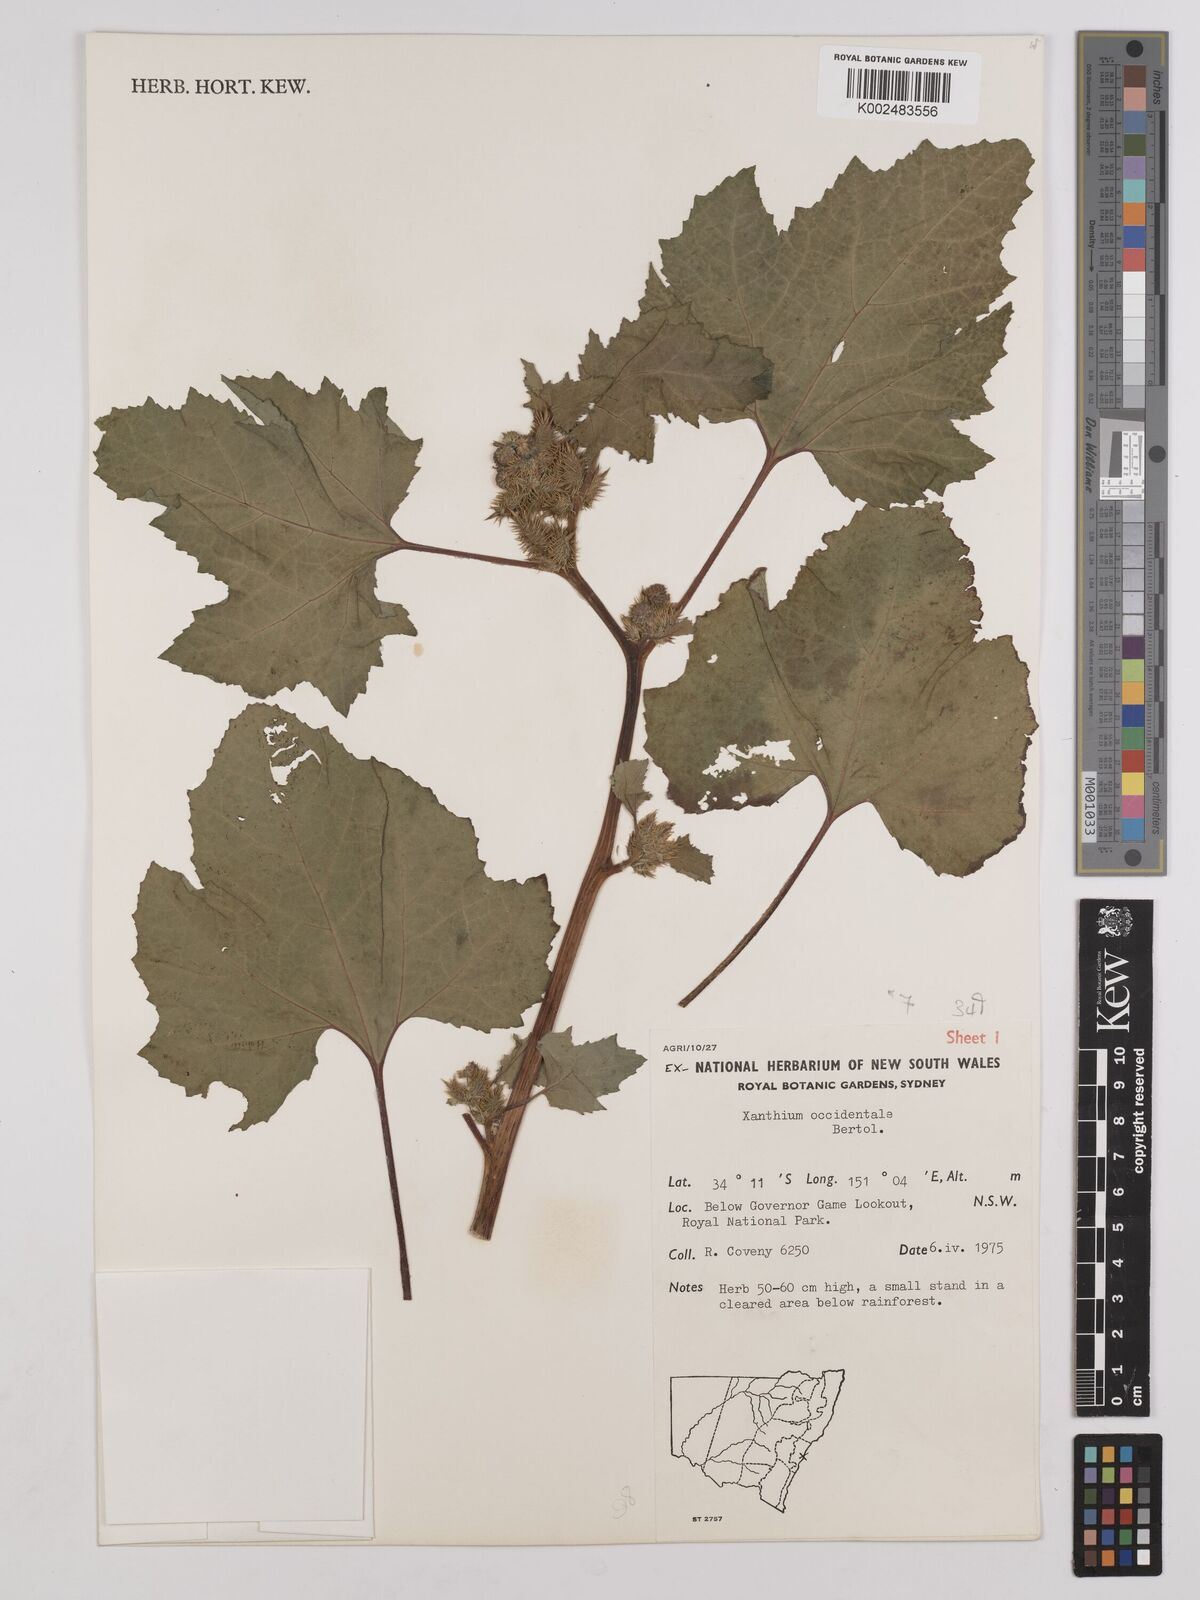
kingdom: Plantae
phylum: Tracheophyta
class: Magnoliopsida
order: Asterales
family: Asteraceae
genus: Xanthium
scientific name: Xanthium occidentale
